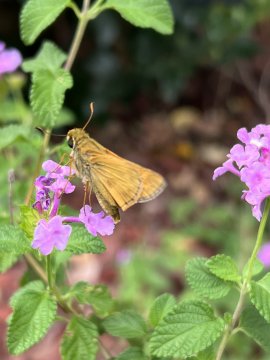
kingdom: Animalia
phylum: Arthropoda
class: Insecta
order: Lepidoptera
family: Hesperiidae
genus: Polites
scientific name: Polites vibex
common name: Whirlabout
